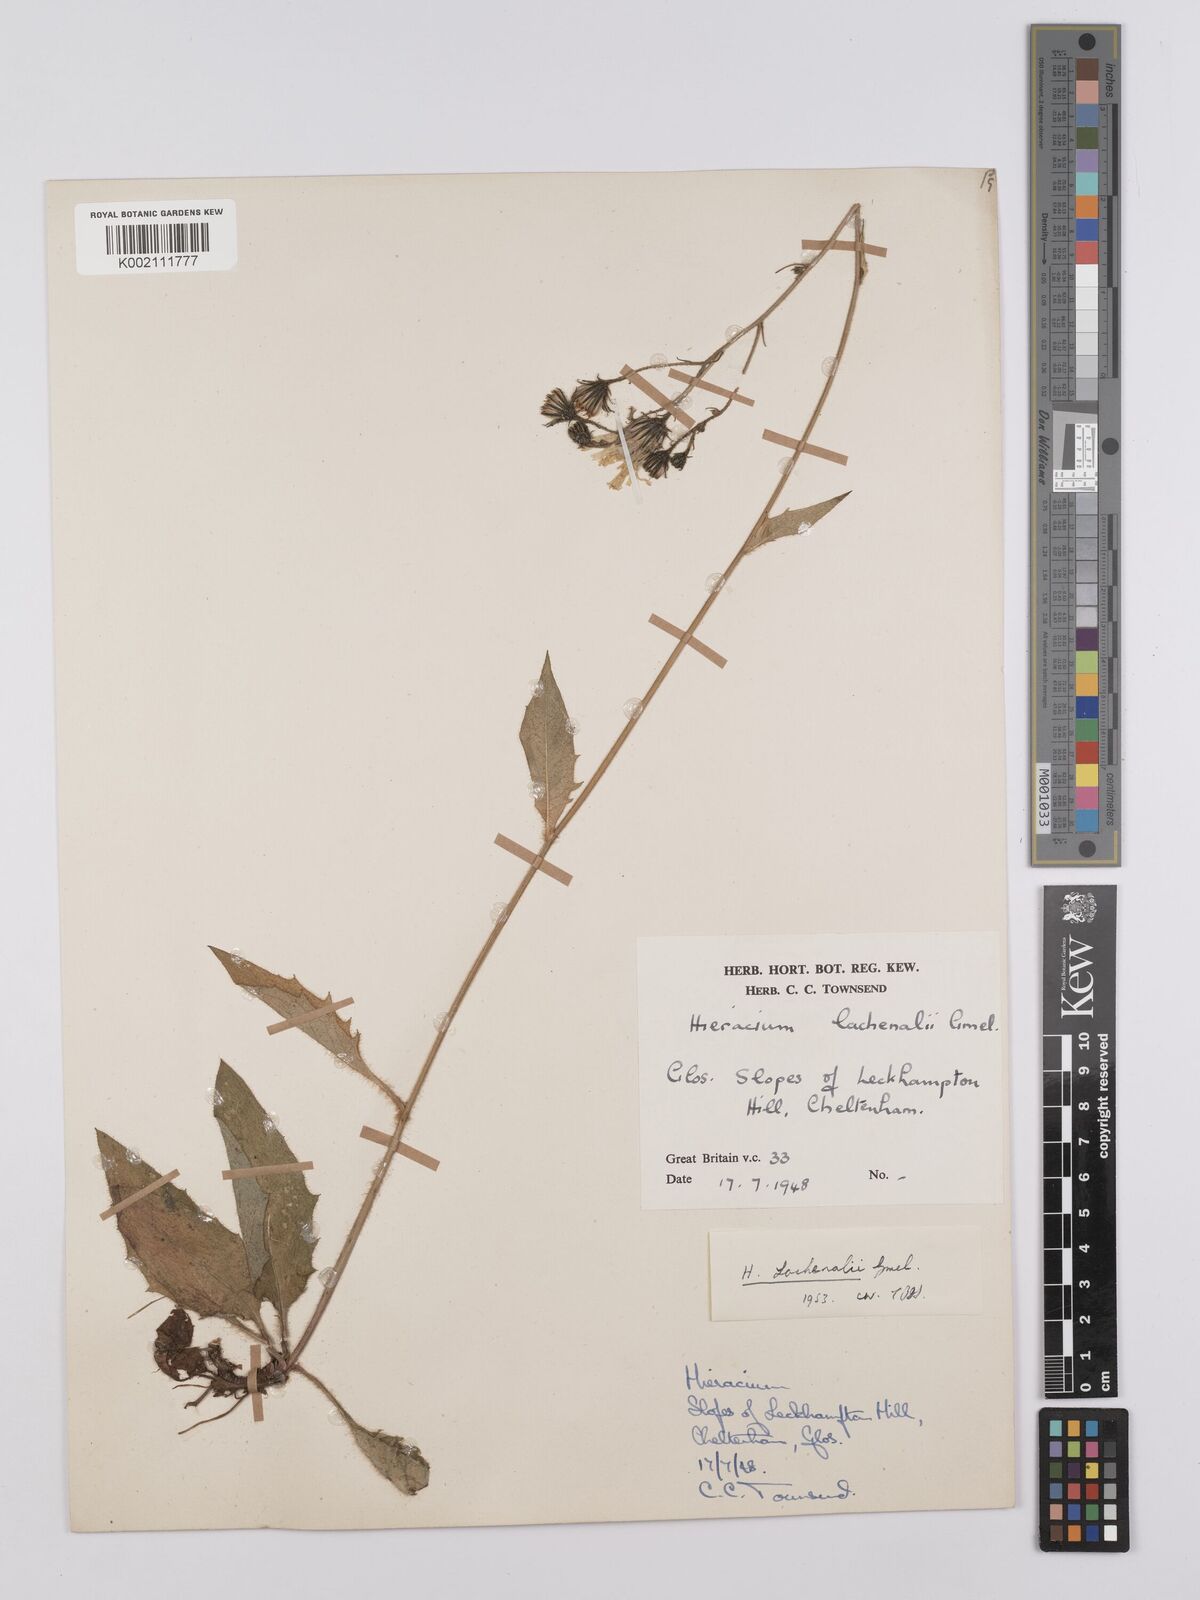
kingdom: Plantae
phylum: Tracheophyta
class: Magnoliopsida
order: Asterales
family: Asteraceae
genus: Hieracium
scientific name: Hieracium lachenalii
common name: Common hawkweed
